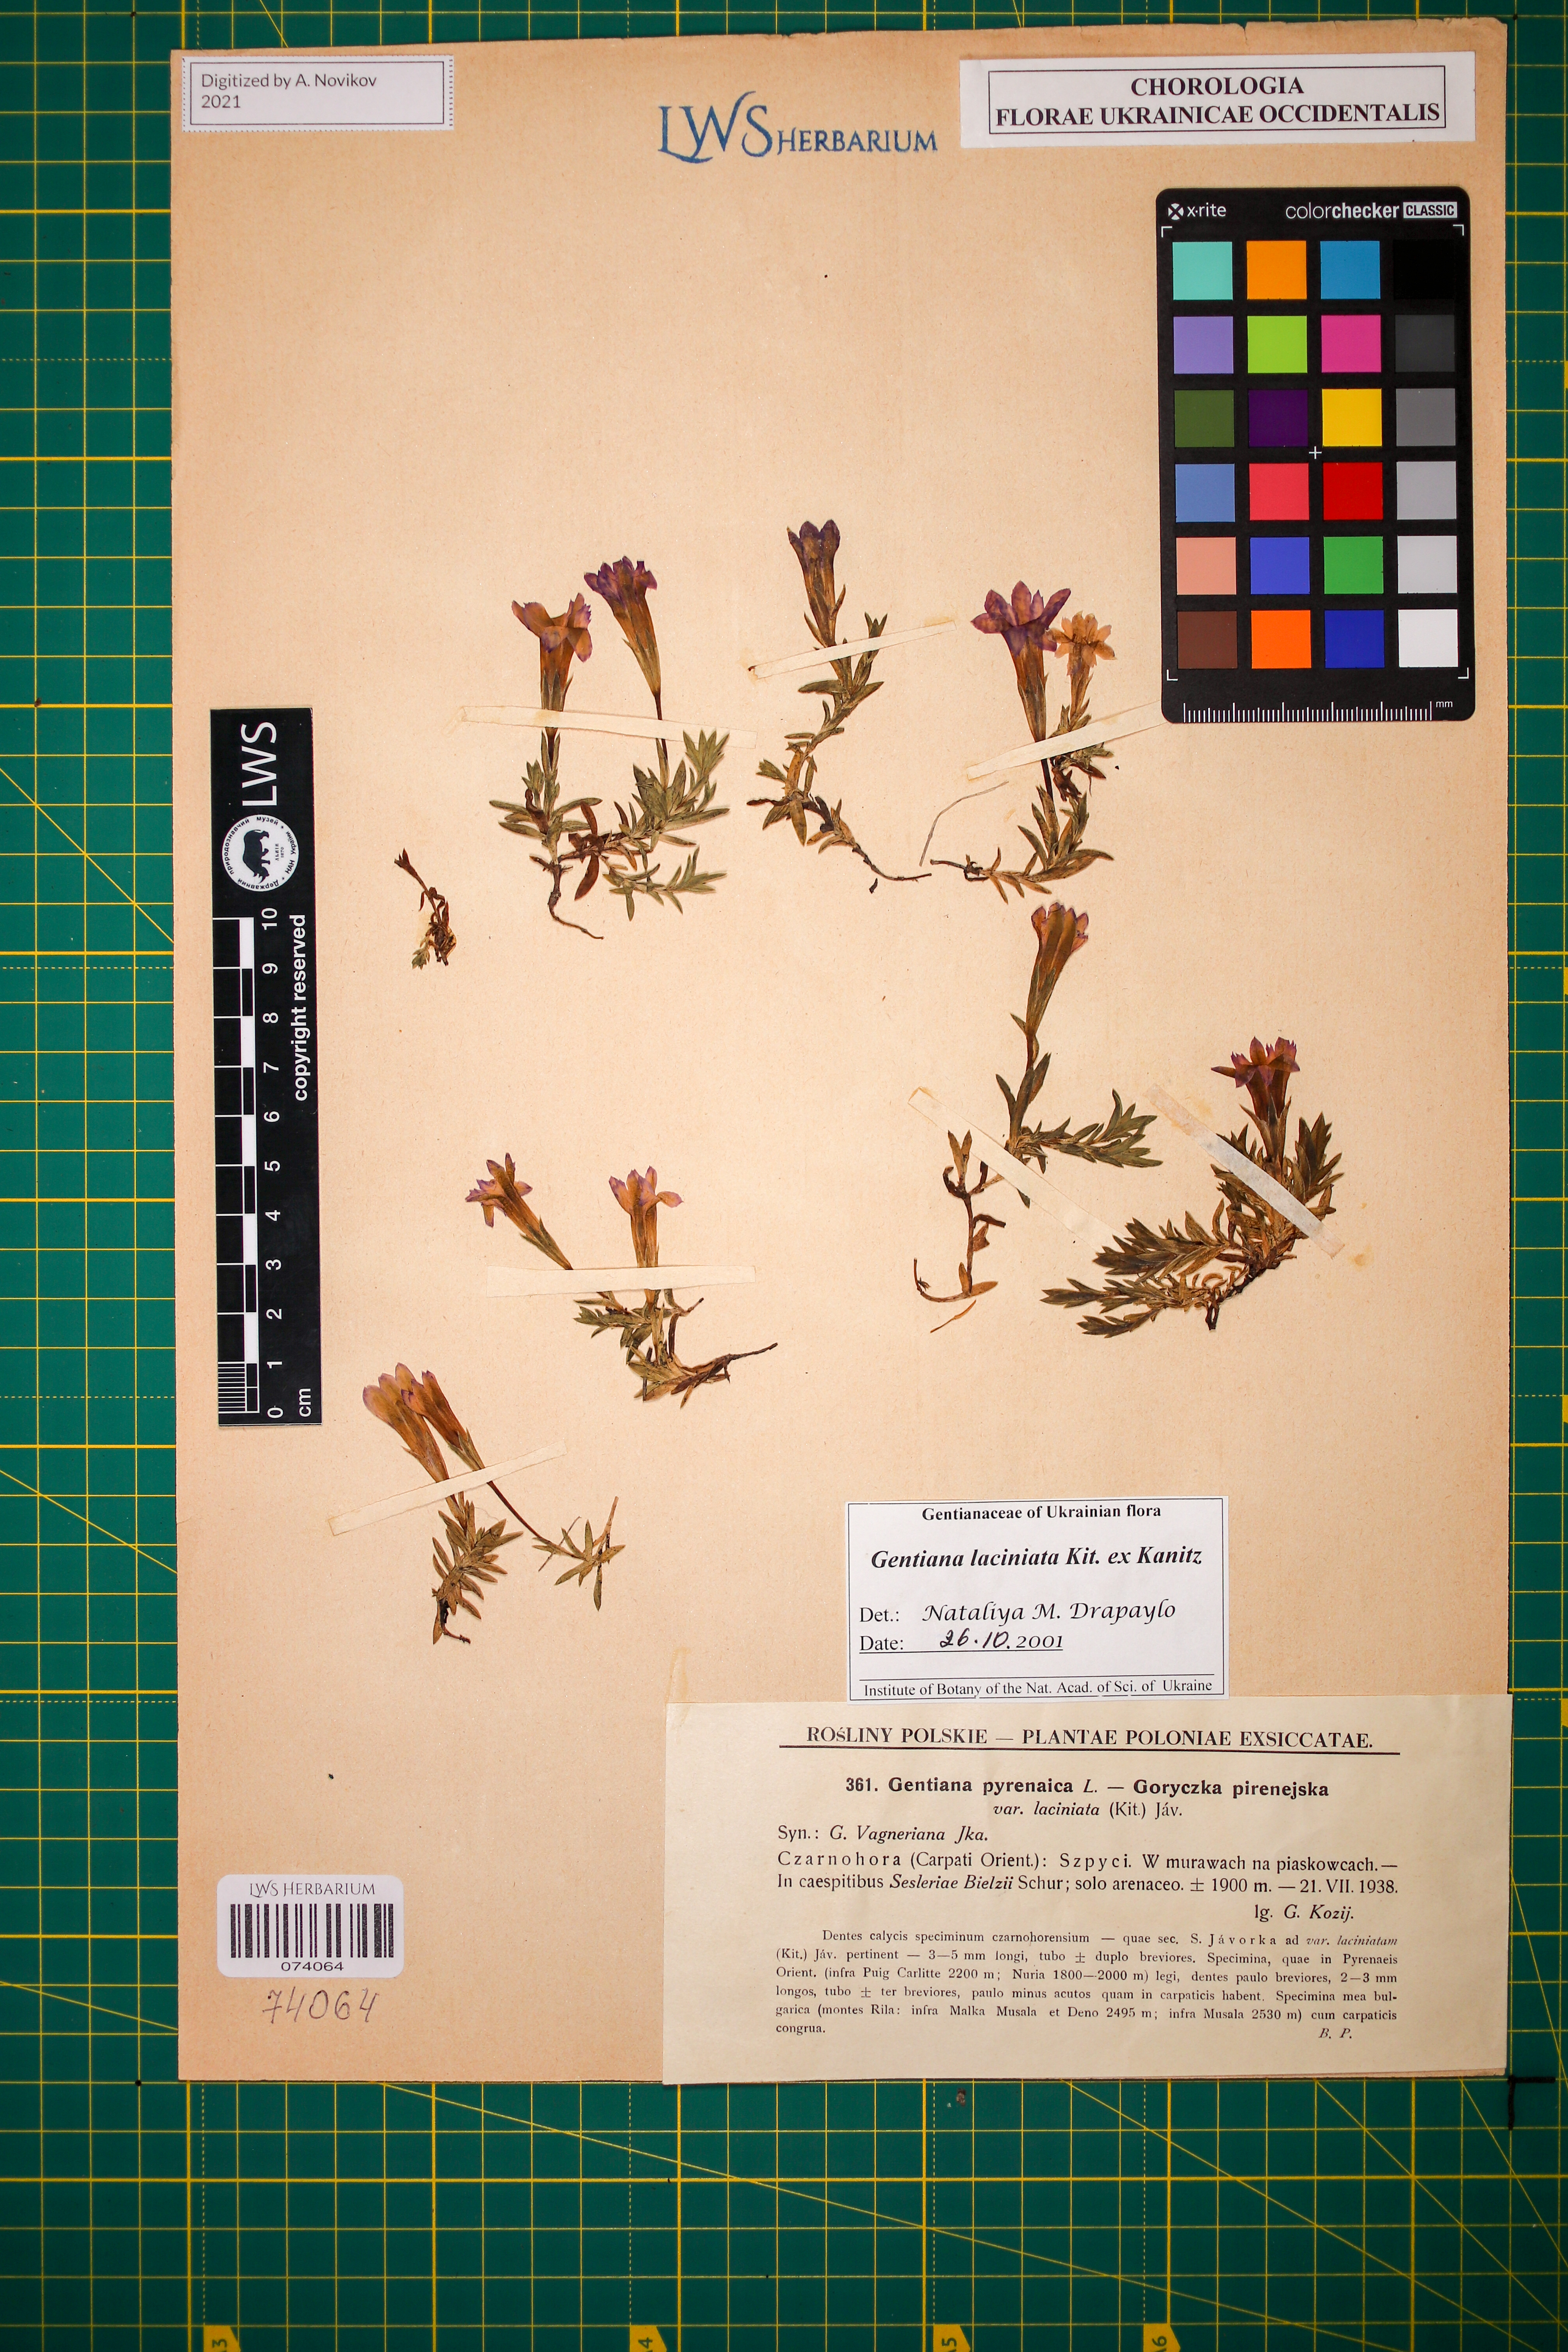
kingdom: Plantae
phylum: Tracheophyta
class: Magnoliopsida
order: Gentianales
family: Gentianaceae
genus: Gentiana
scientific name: Gentiana laciniata
